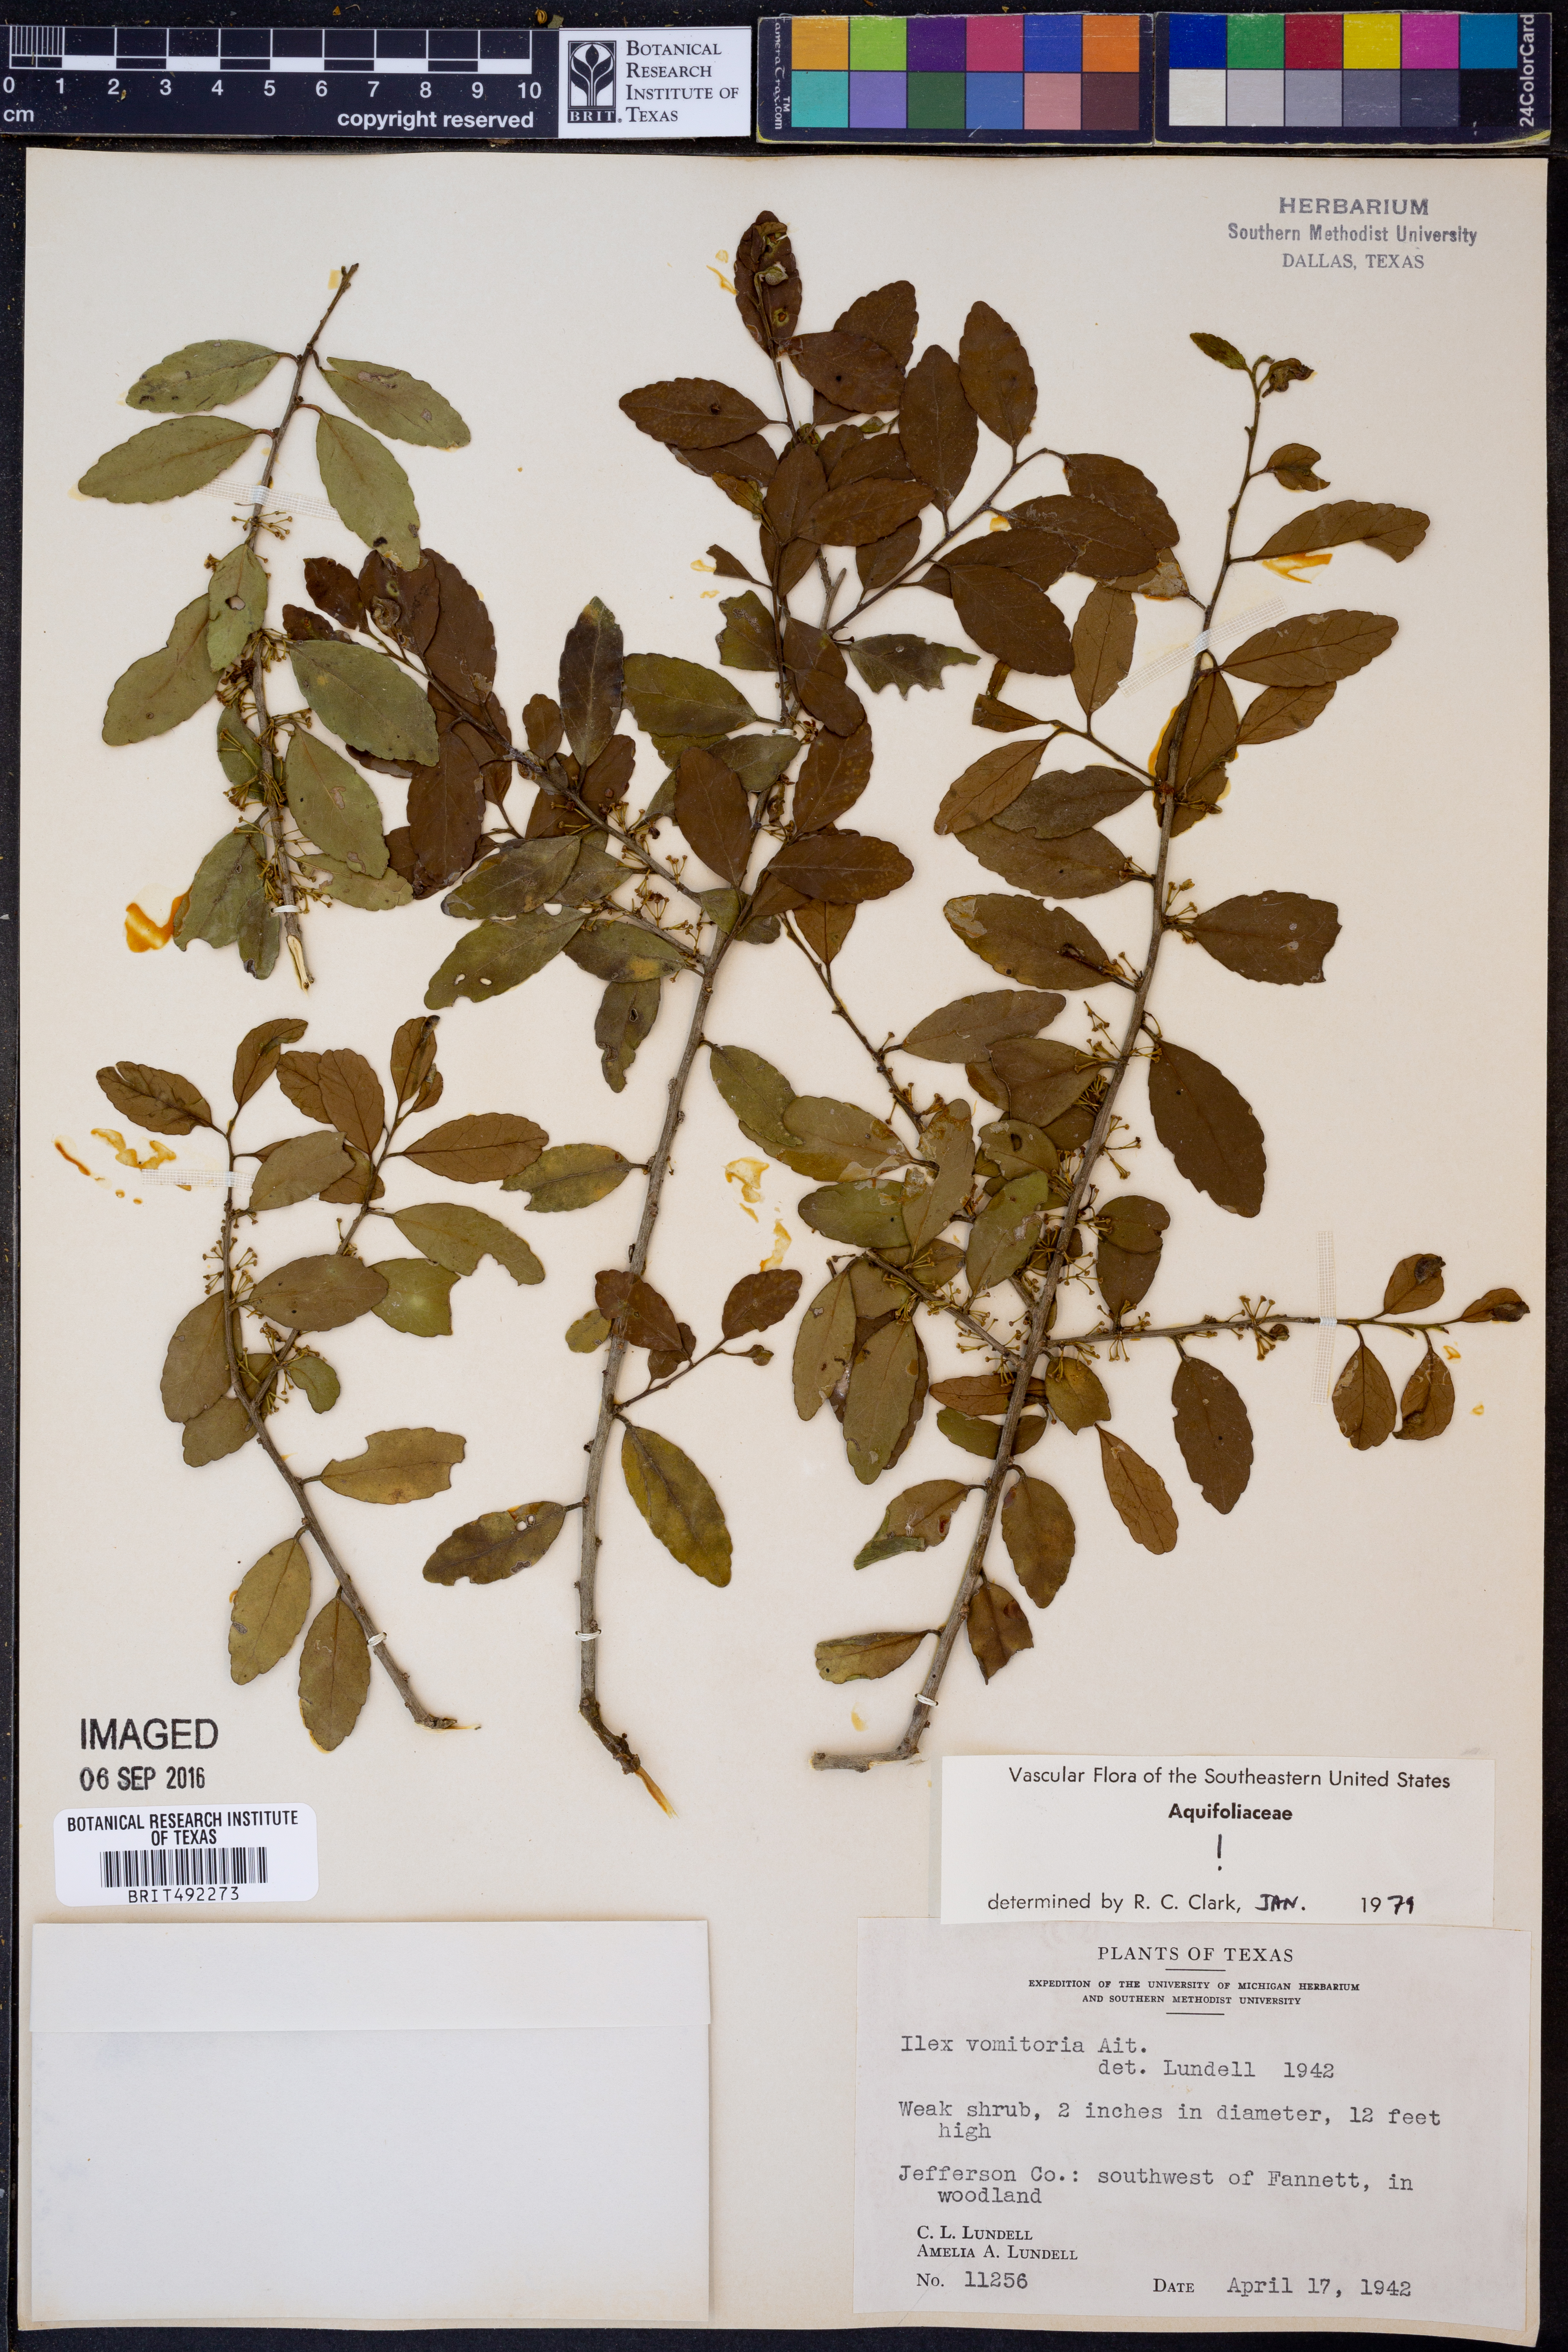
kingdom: Plantae
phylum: Tracheophyta
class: Magnoliopsida
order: Aquifoliales
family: Aquifoliaceae
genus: Ilex
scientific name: Ilex vomitoria
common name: Yaupon holly
